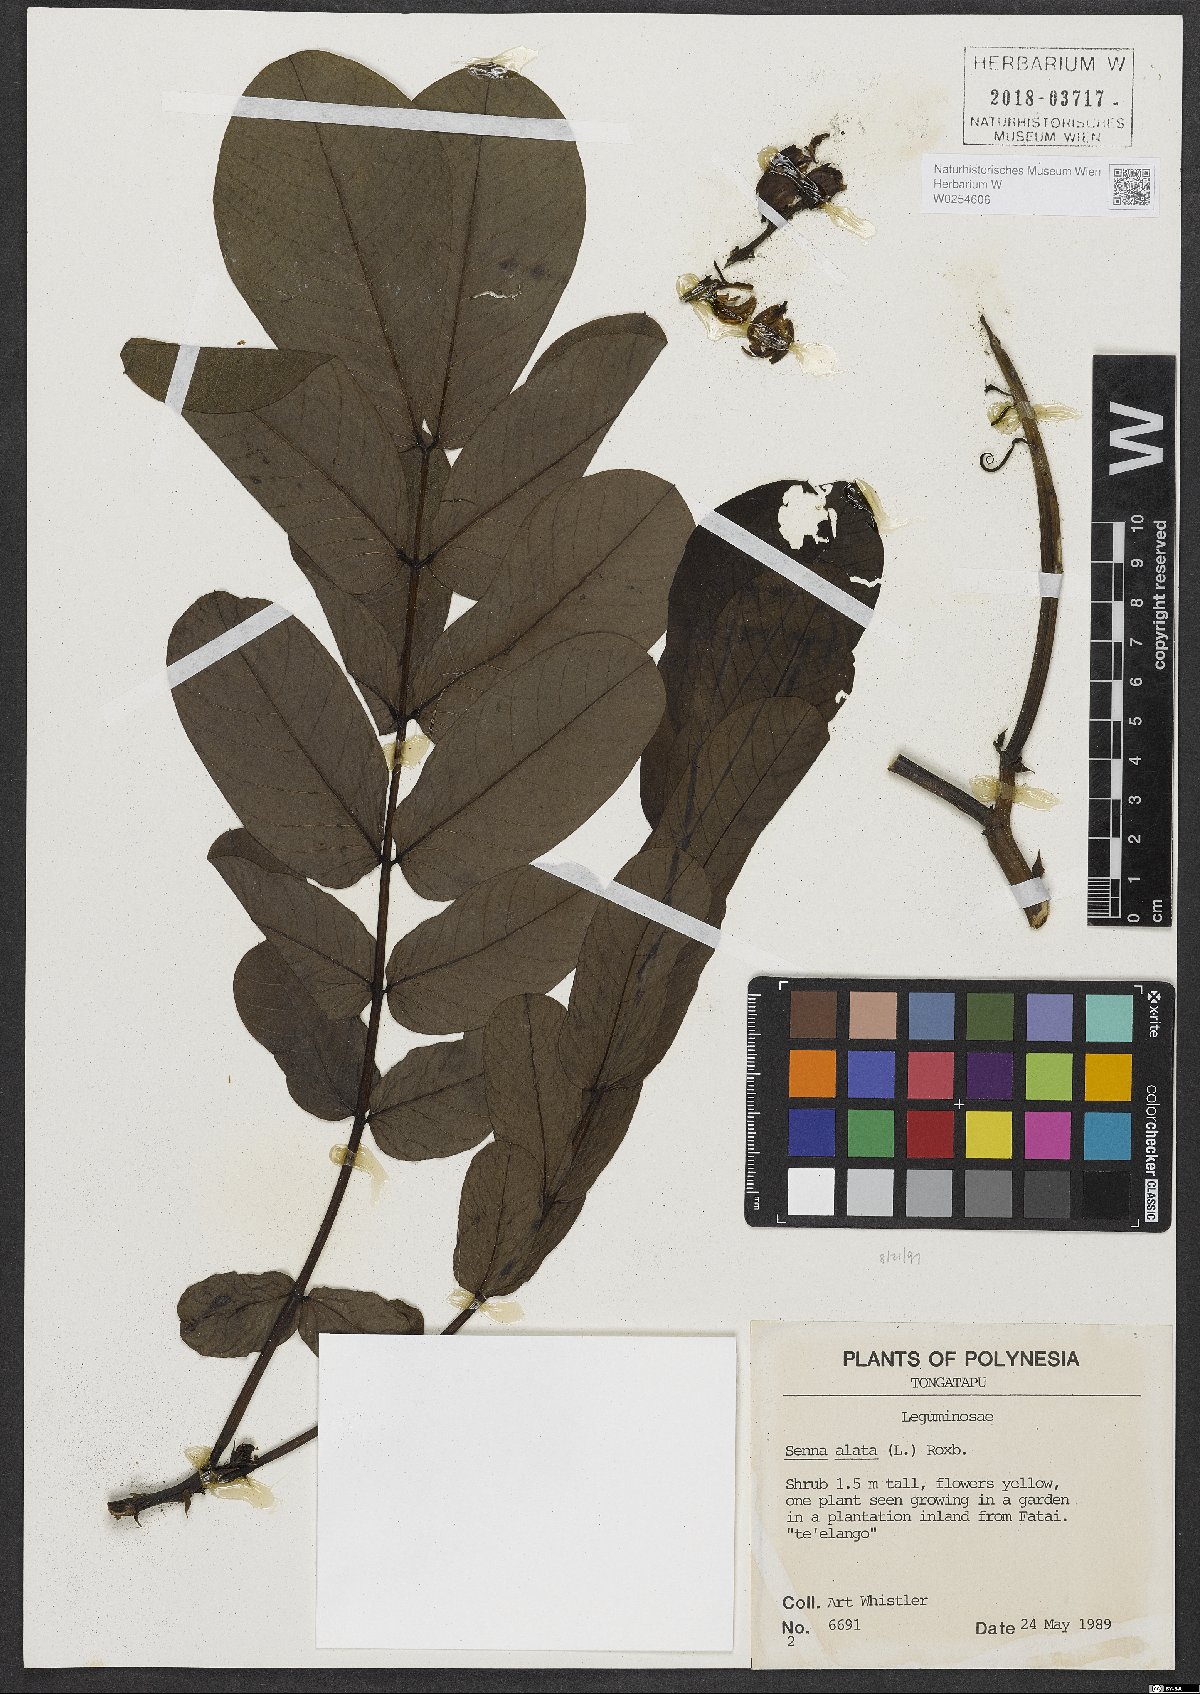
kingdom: Plantae
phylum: Tracheophyta
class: Magnoliopsida
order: Fabales
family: Fabaceae
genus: Senna
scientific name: Senna alata
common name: Emperor's candlesticks
